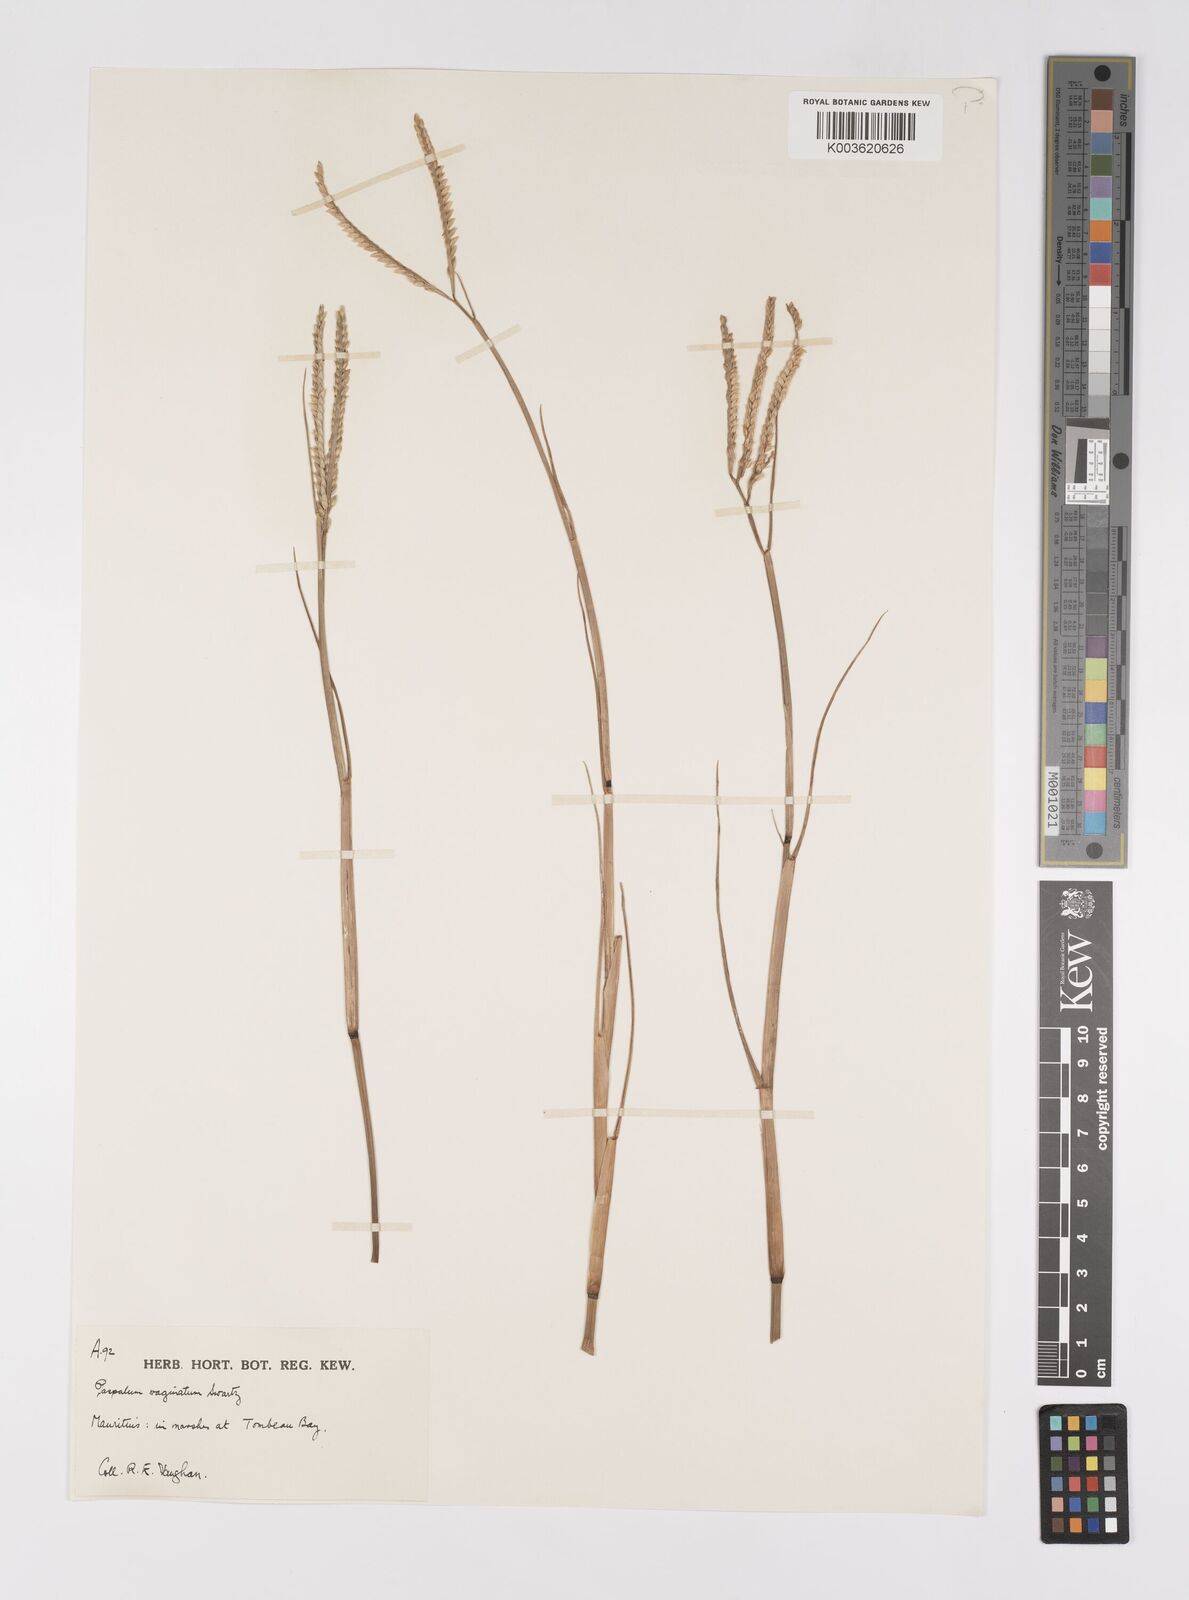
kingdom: Plantae
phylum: Tracheophyta
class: Liliopsida
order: Poales
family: Poaceae
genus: Paspalum
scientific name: Paspalum vaginatum
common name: Seashore paspalum
